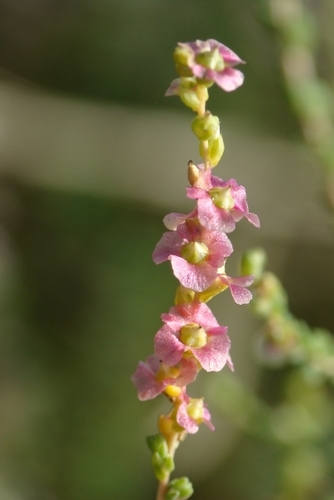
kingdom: Plantae
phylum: Tracheophyta
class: Magnoliopsida
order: Caryophyllales
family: Amaranthaceae
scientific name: Amaranthaceae
